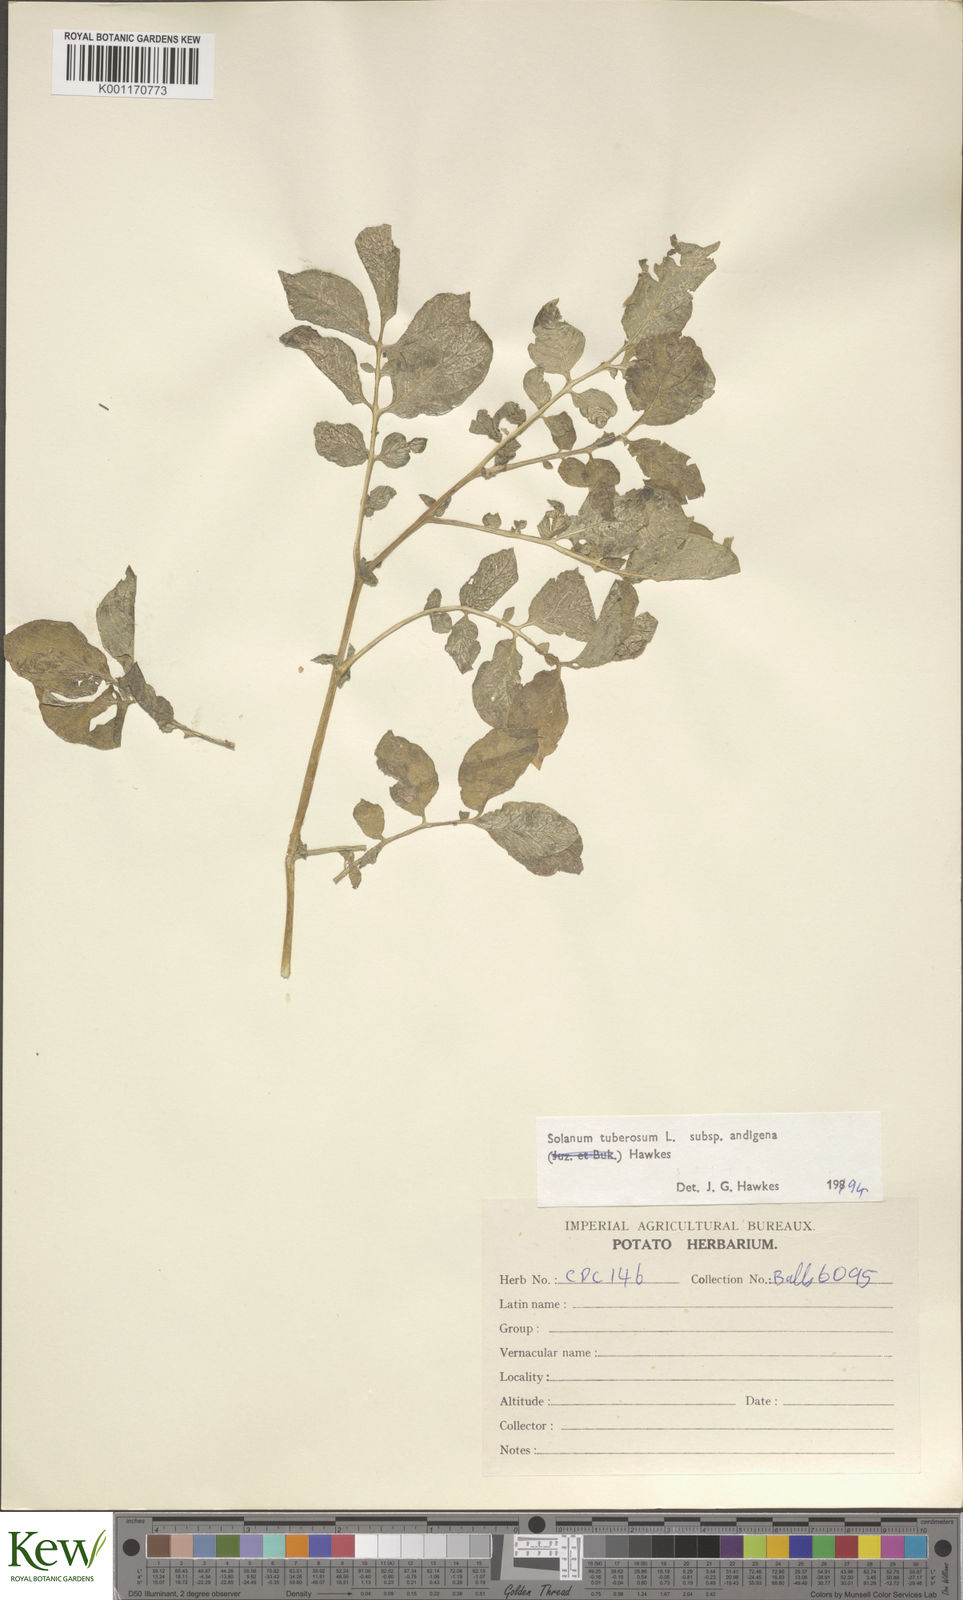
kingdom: Plantae
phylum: Tracheophyta
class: Magnoliopsida
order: Solanales
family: Solanaceae
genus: Solanum
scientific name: Solanum tuberosum
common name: Potato
